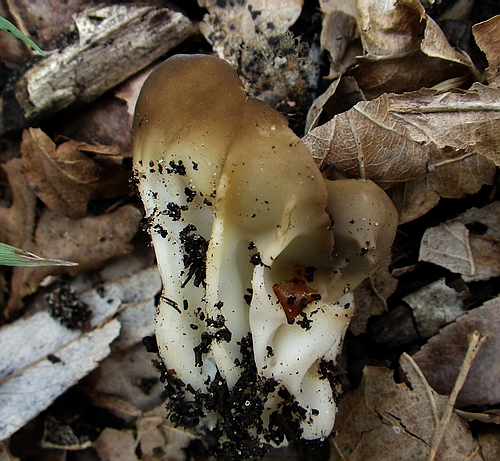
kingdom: Fungi
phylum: Ascomycota
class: Pezizomycetes
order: Pezizales
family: Helvellaceae
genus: Helvella
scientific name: Helvella acetabulum
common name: pokal-foldhat
